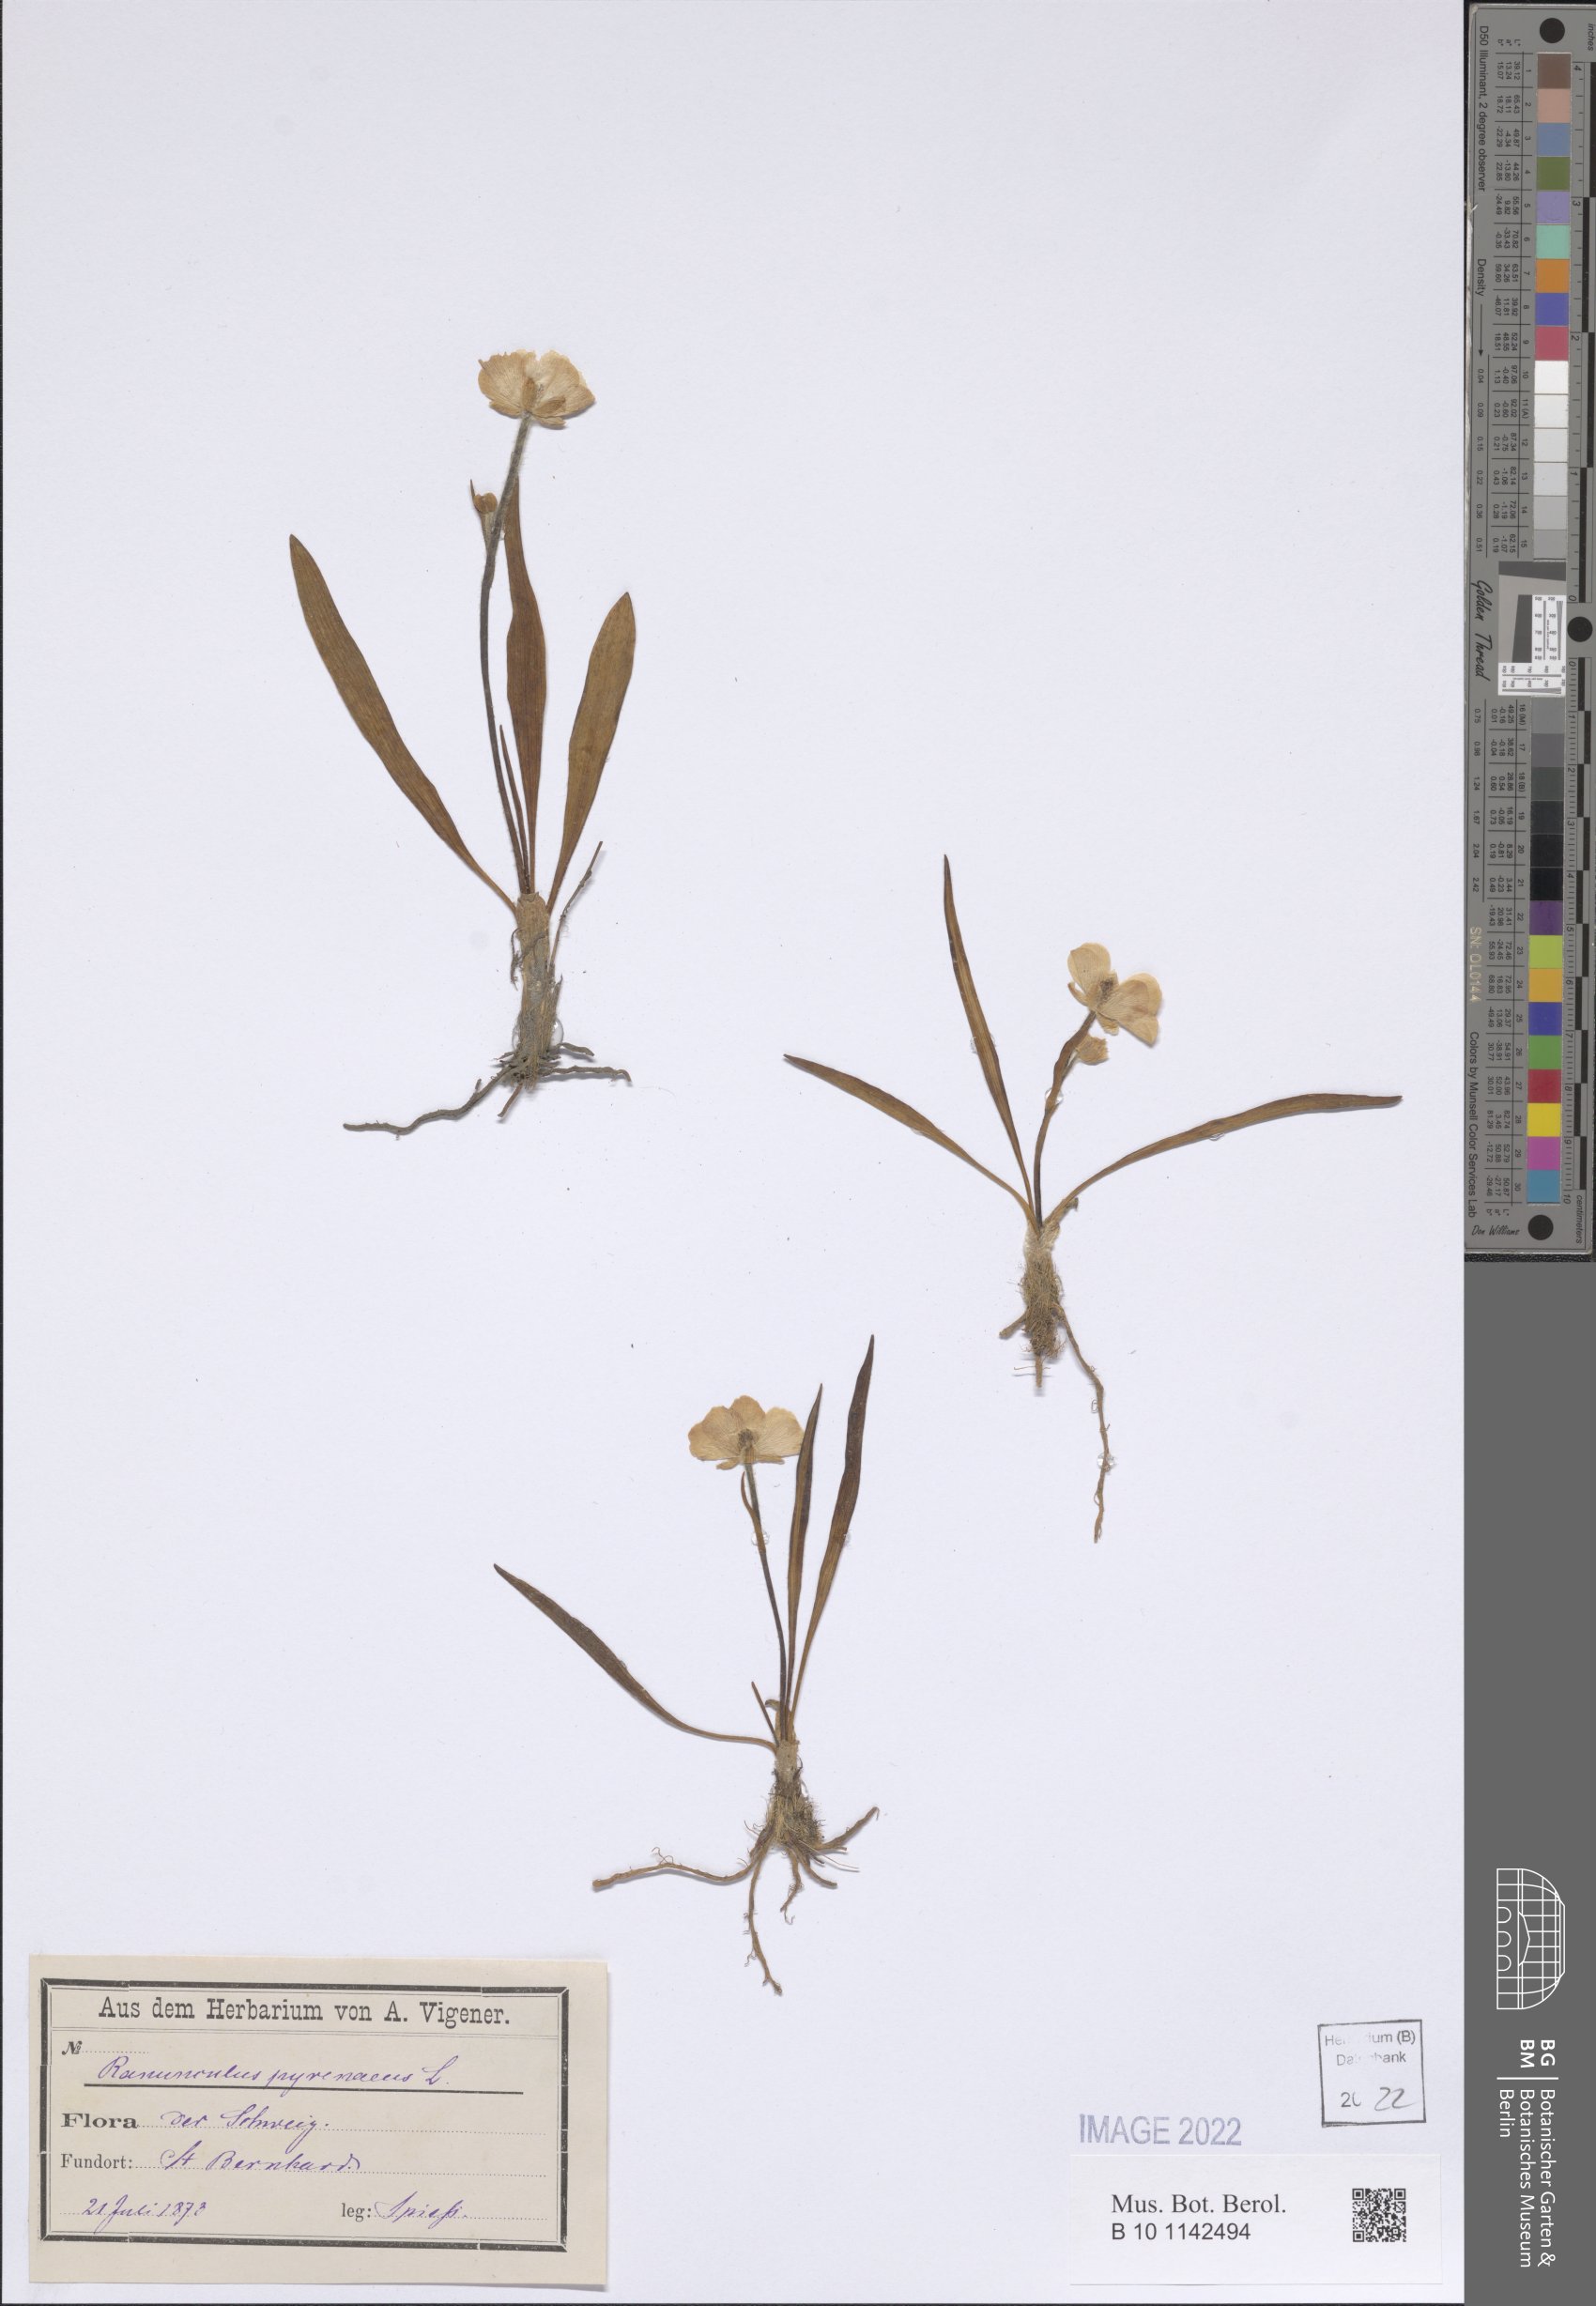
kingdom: Plantae
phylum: Tracheophyta
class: Magnoliopsida
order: Ranunculales
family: Ranunculaceae
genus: Ranunculus
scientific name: Ranunculus pyrenaeus
